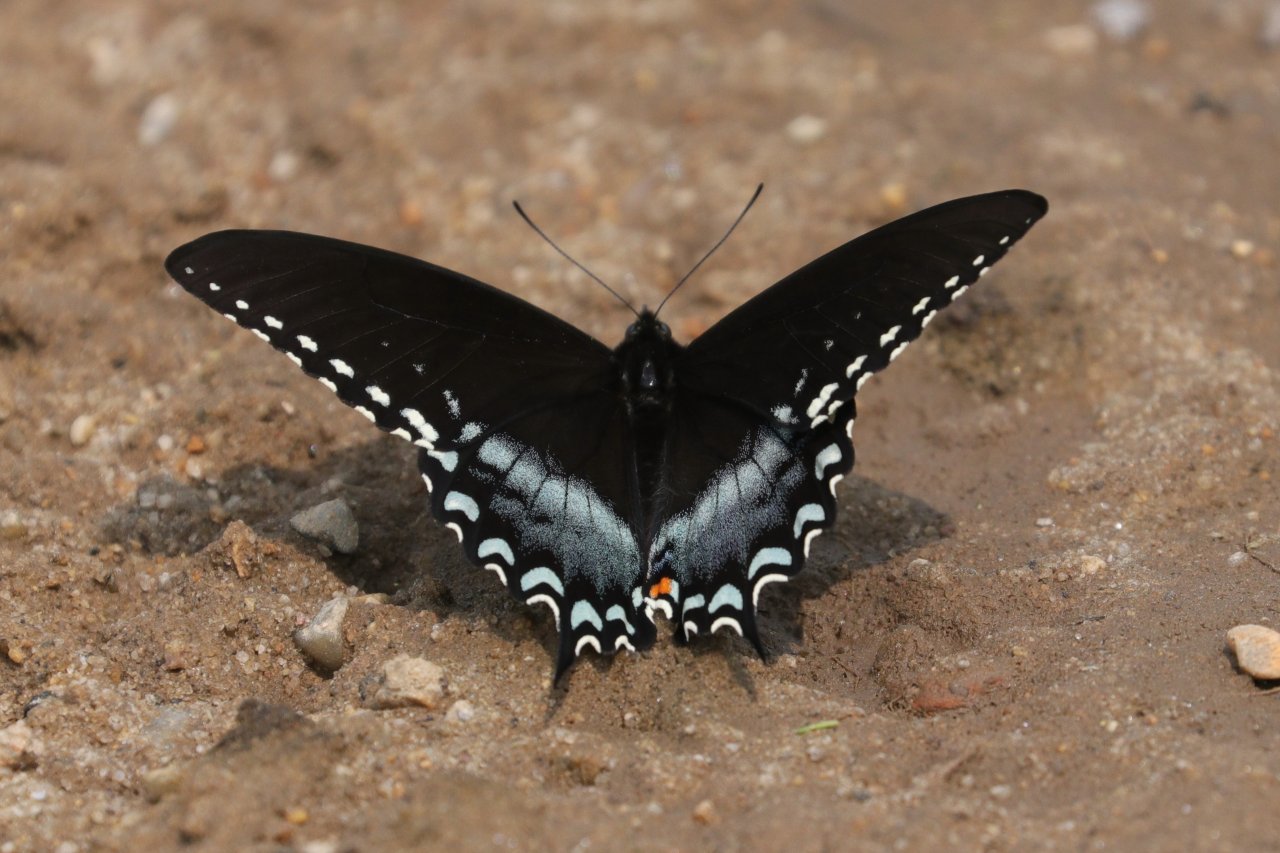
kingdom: Animalia
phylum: Arthropoda
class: Insecta
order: Lepidoptera
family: Papilionidae
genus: Pterourus
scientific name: Pterourus troilus
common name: Spicebush Swallowtail
